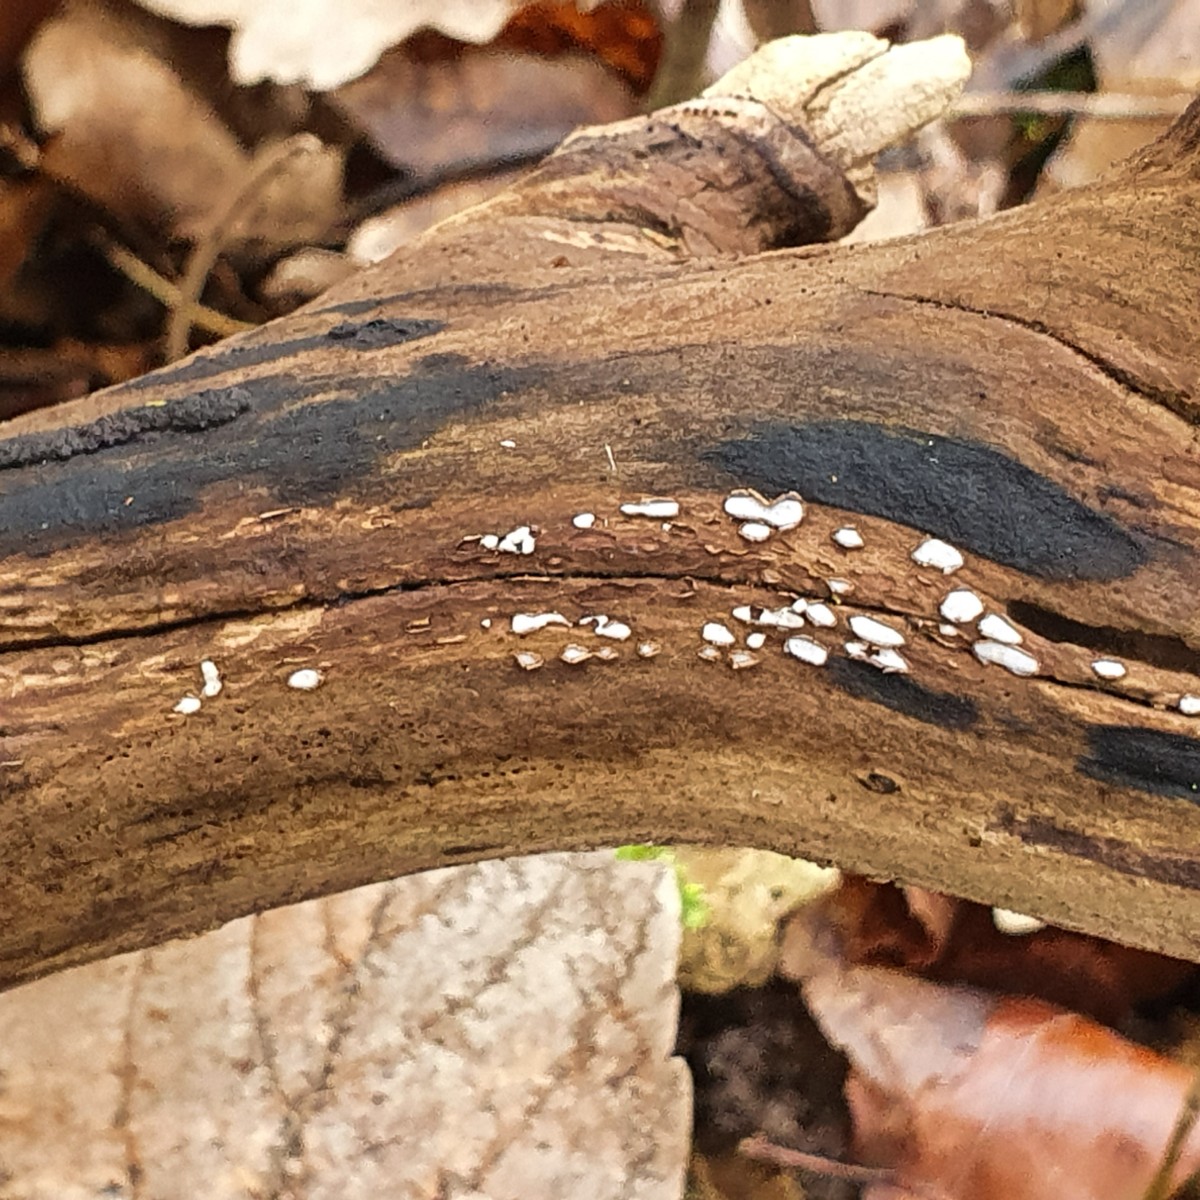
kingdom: Fungi
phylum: Ascomycota
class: Leotiomycetes
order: Chaetomellales
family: Marthamycetaceae
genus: Propolis
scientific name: Propolis farinosa
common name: almindelig vedsprængerskive
